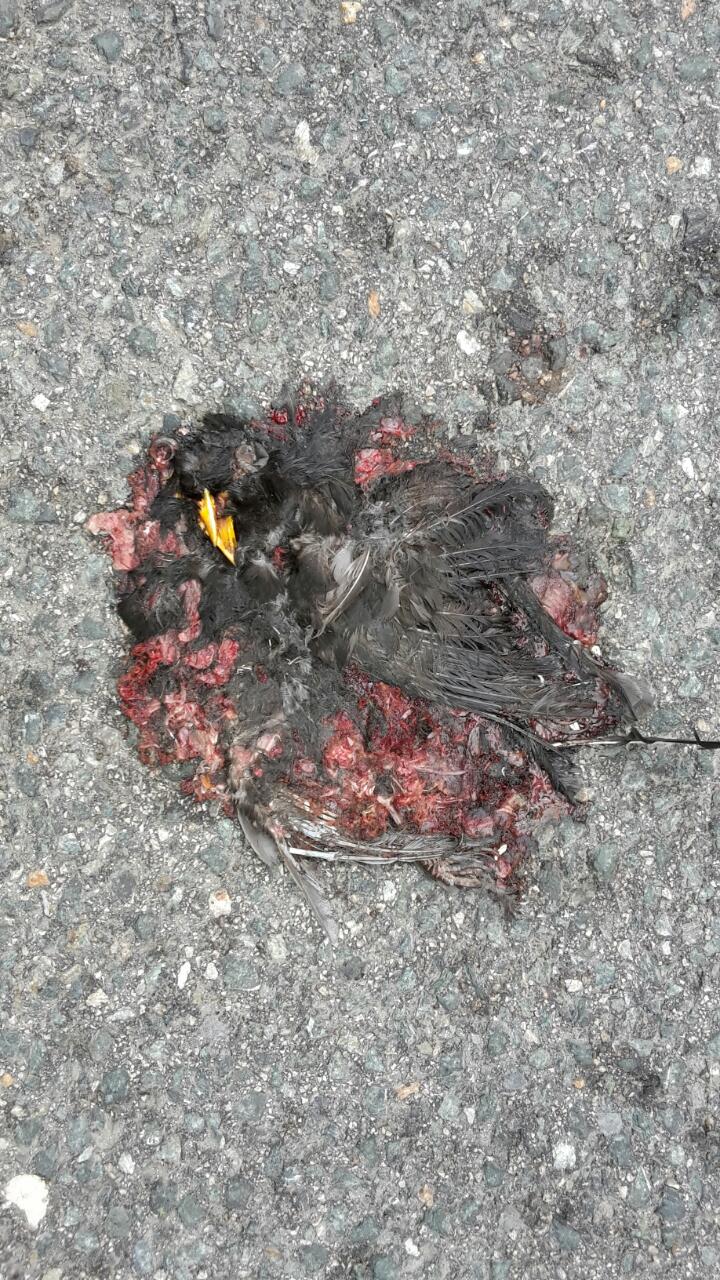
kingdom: Animalia
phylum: Chordata
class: Aves
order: Passeriformes
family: Turdidae
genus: Turdus
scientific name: Turdus merula
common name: Common blackbird
